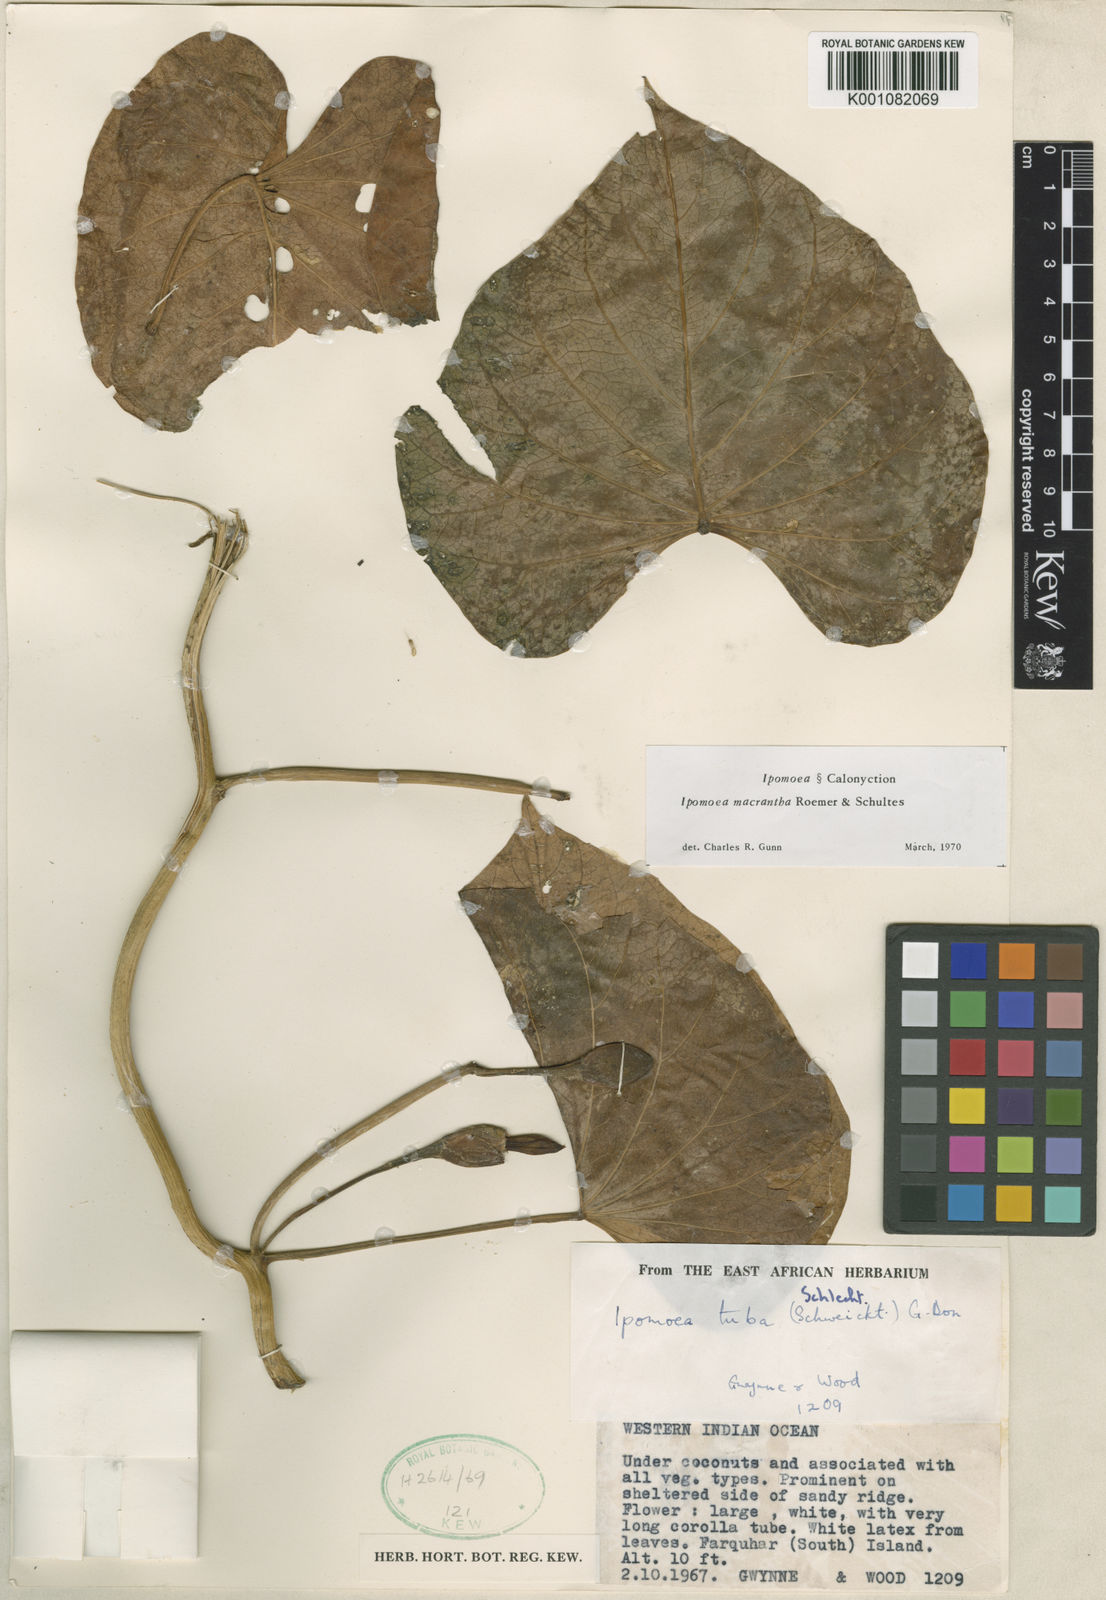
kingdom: Plantae
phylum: Tracheophyta
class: Magnoliopsida
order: Solanales
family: Convolvulaceae
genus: Ipomoea
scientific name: Ipomoea violacea
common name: Beach moonflower
